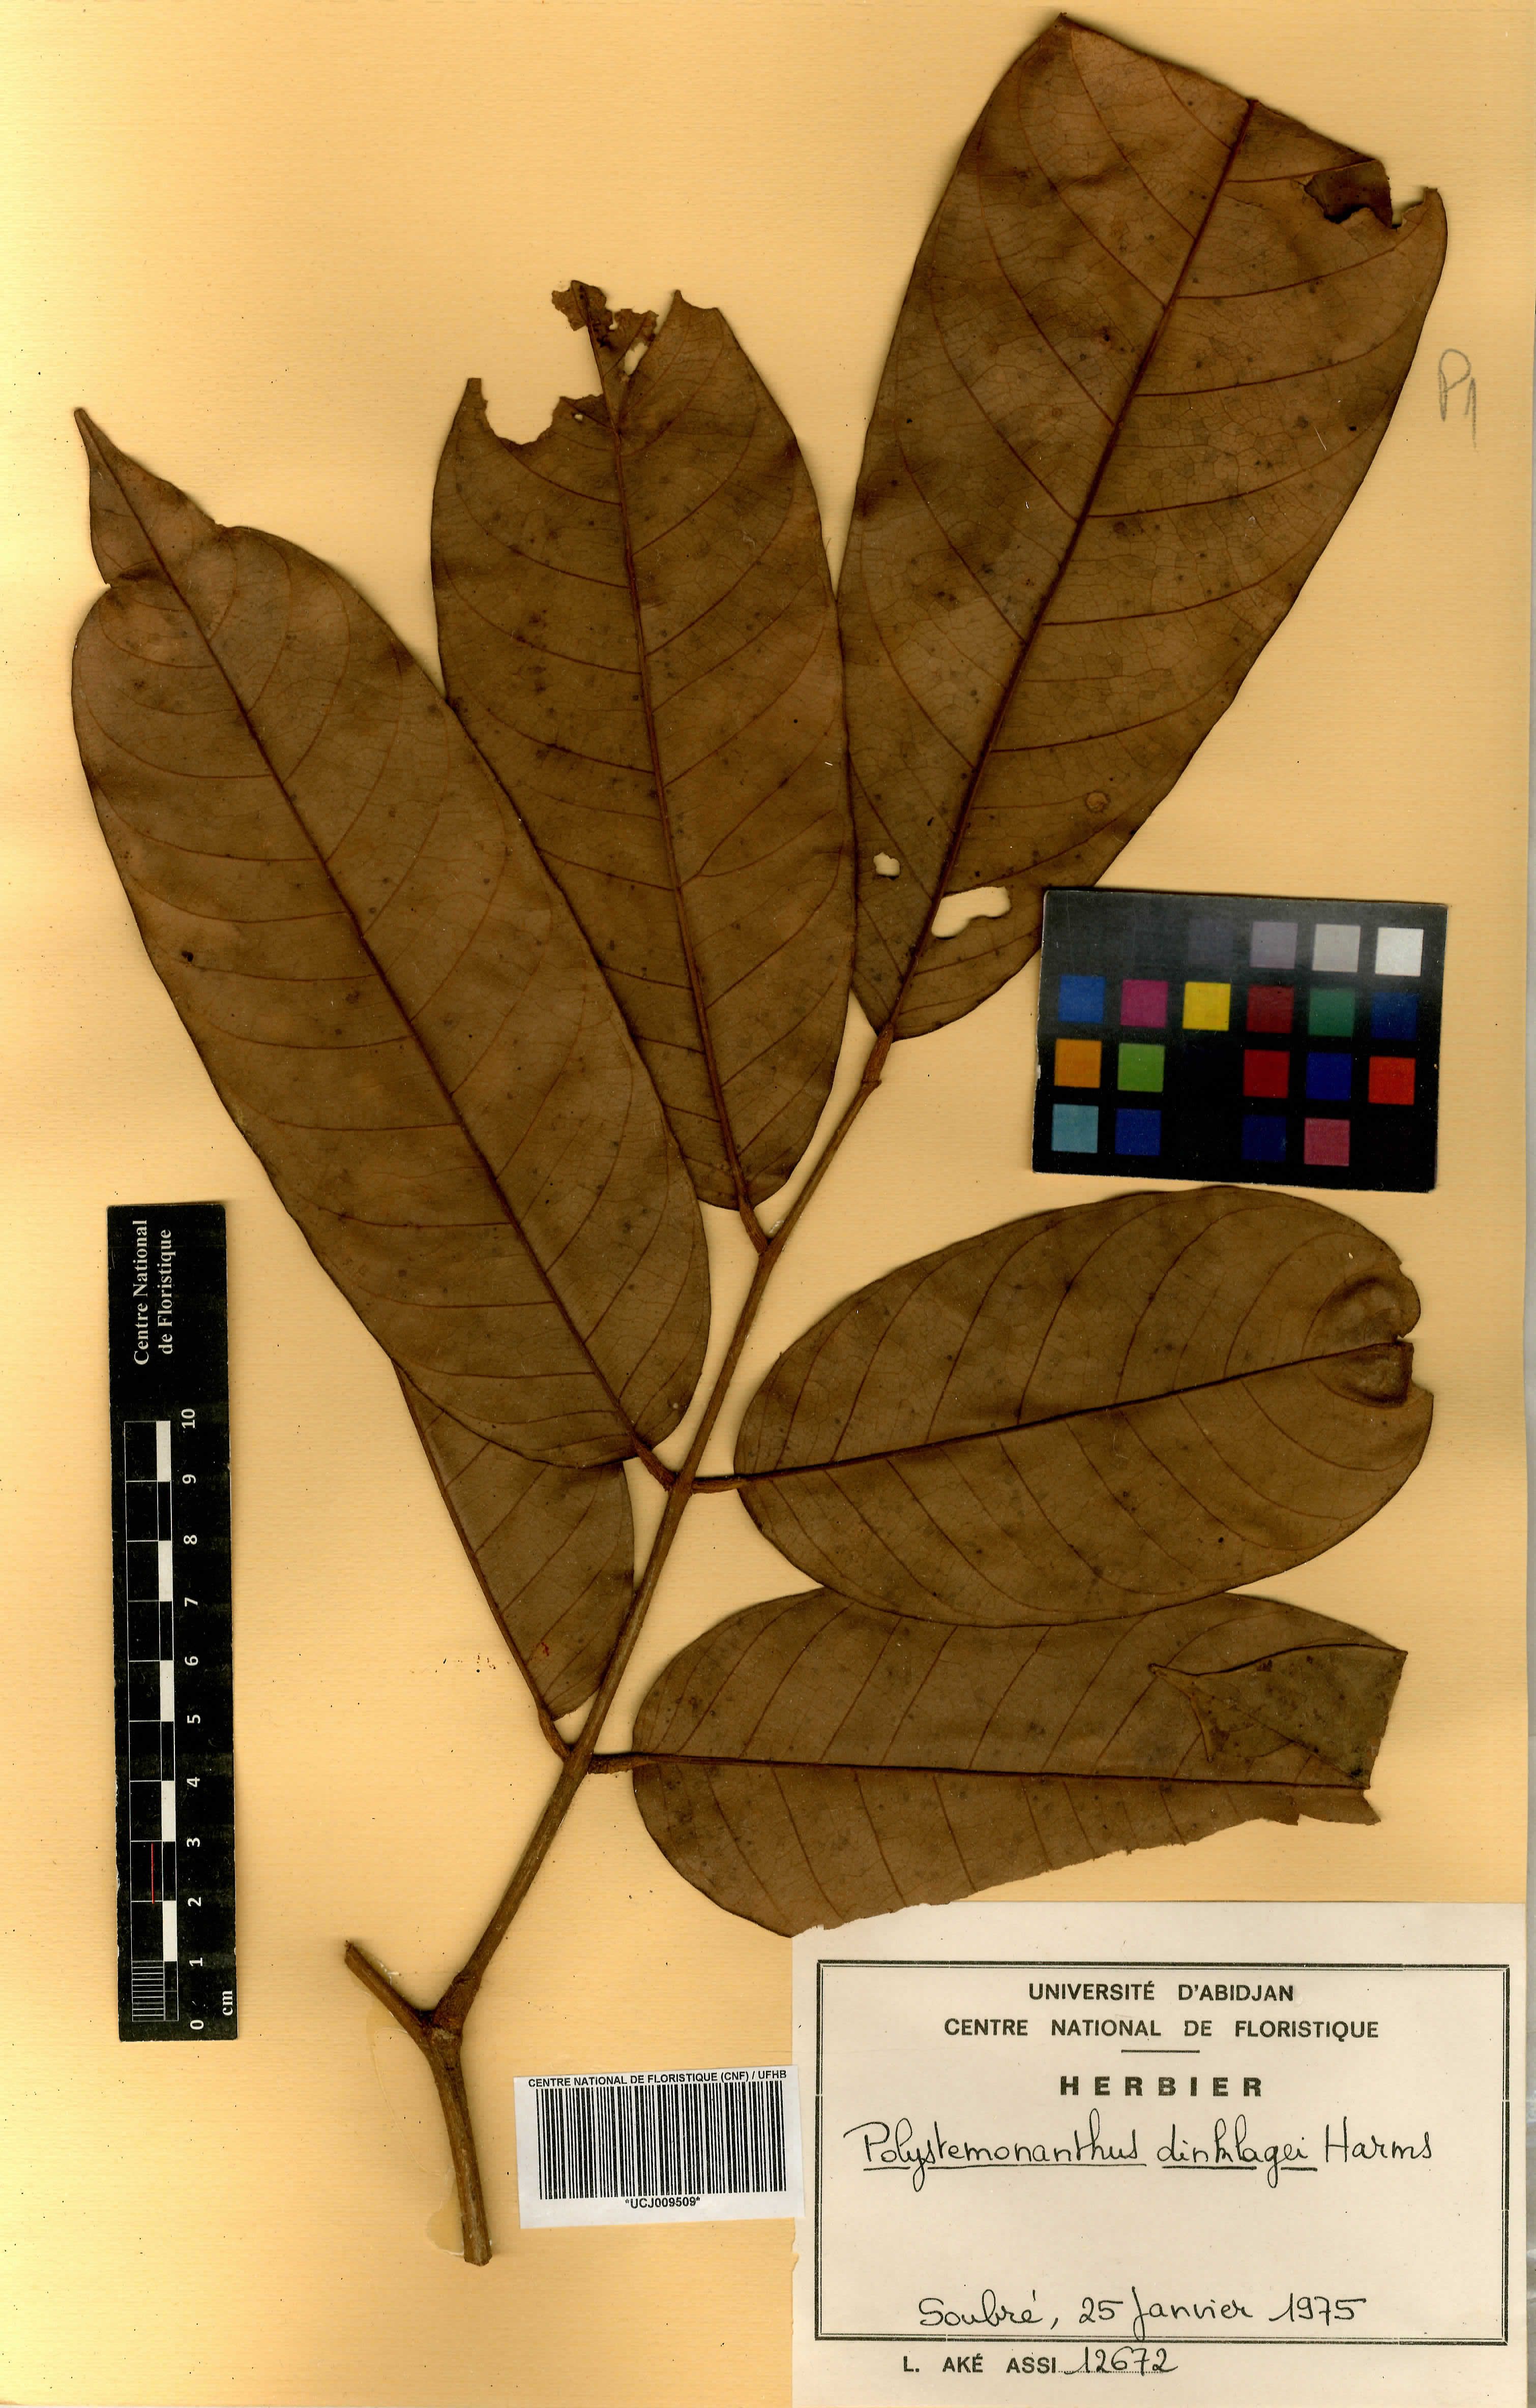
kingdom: Plantae
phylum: Tracheophyta
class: Magnoliopsida
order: Fabales
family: Fabaceae
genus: Polystemonanthus
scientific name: Polystemonanthus dinklagei
